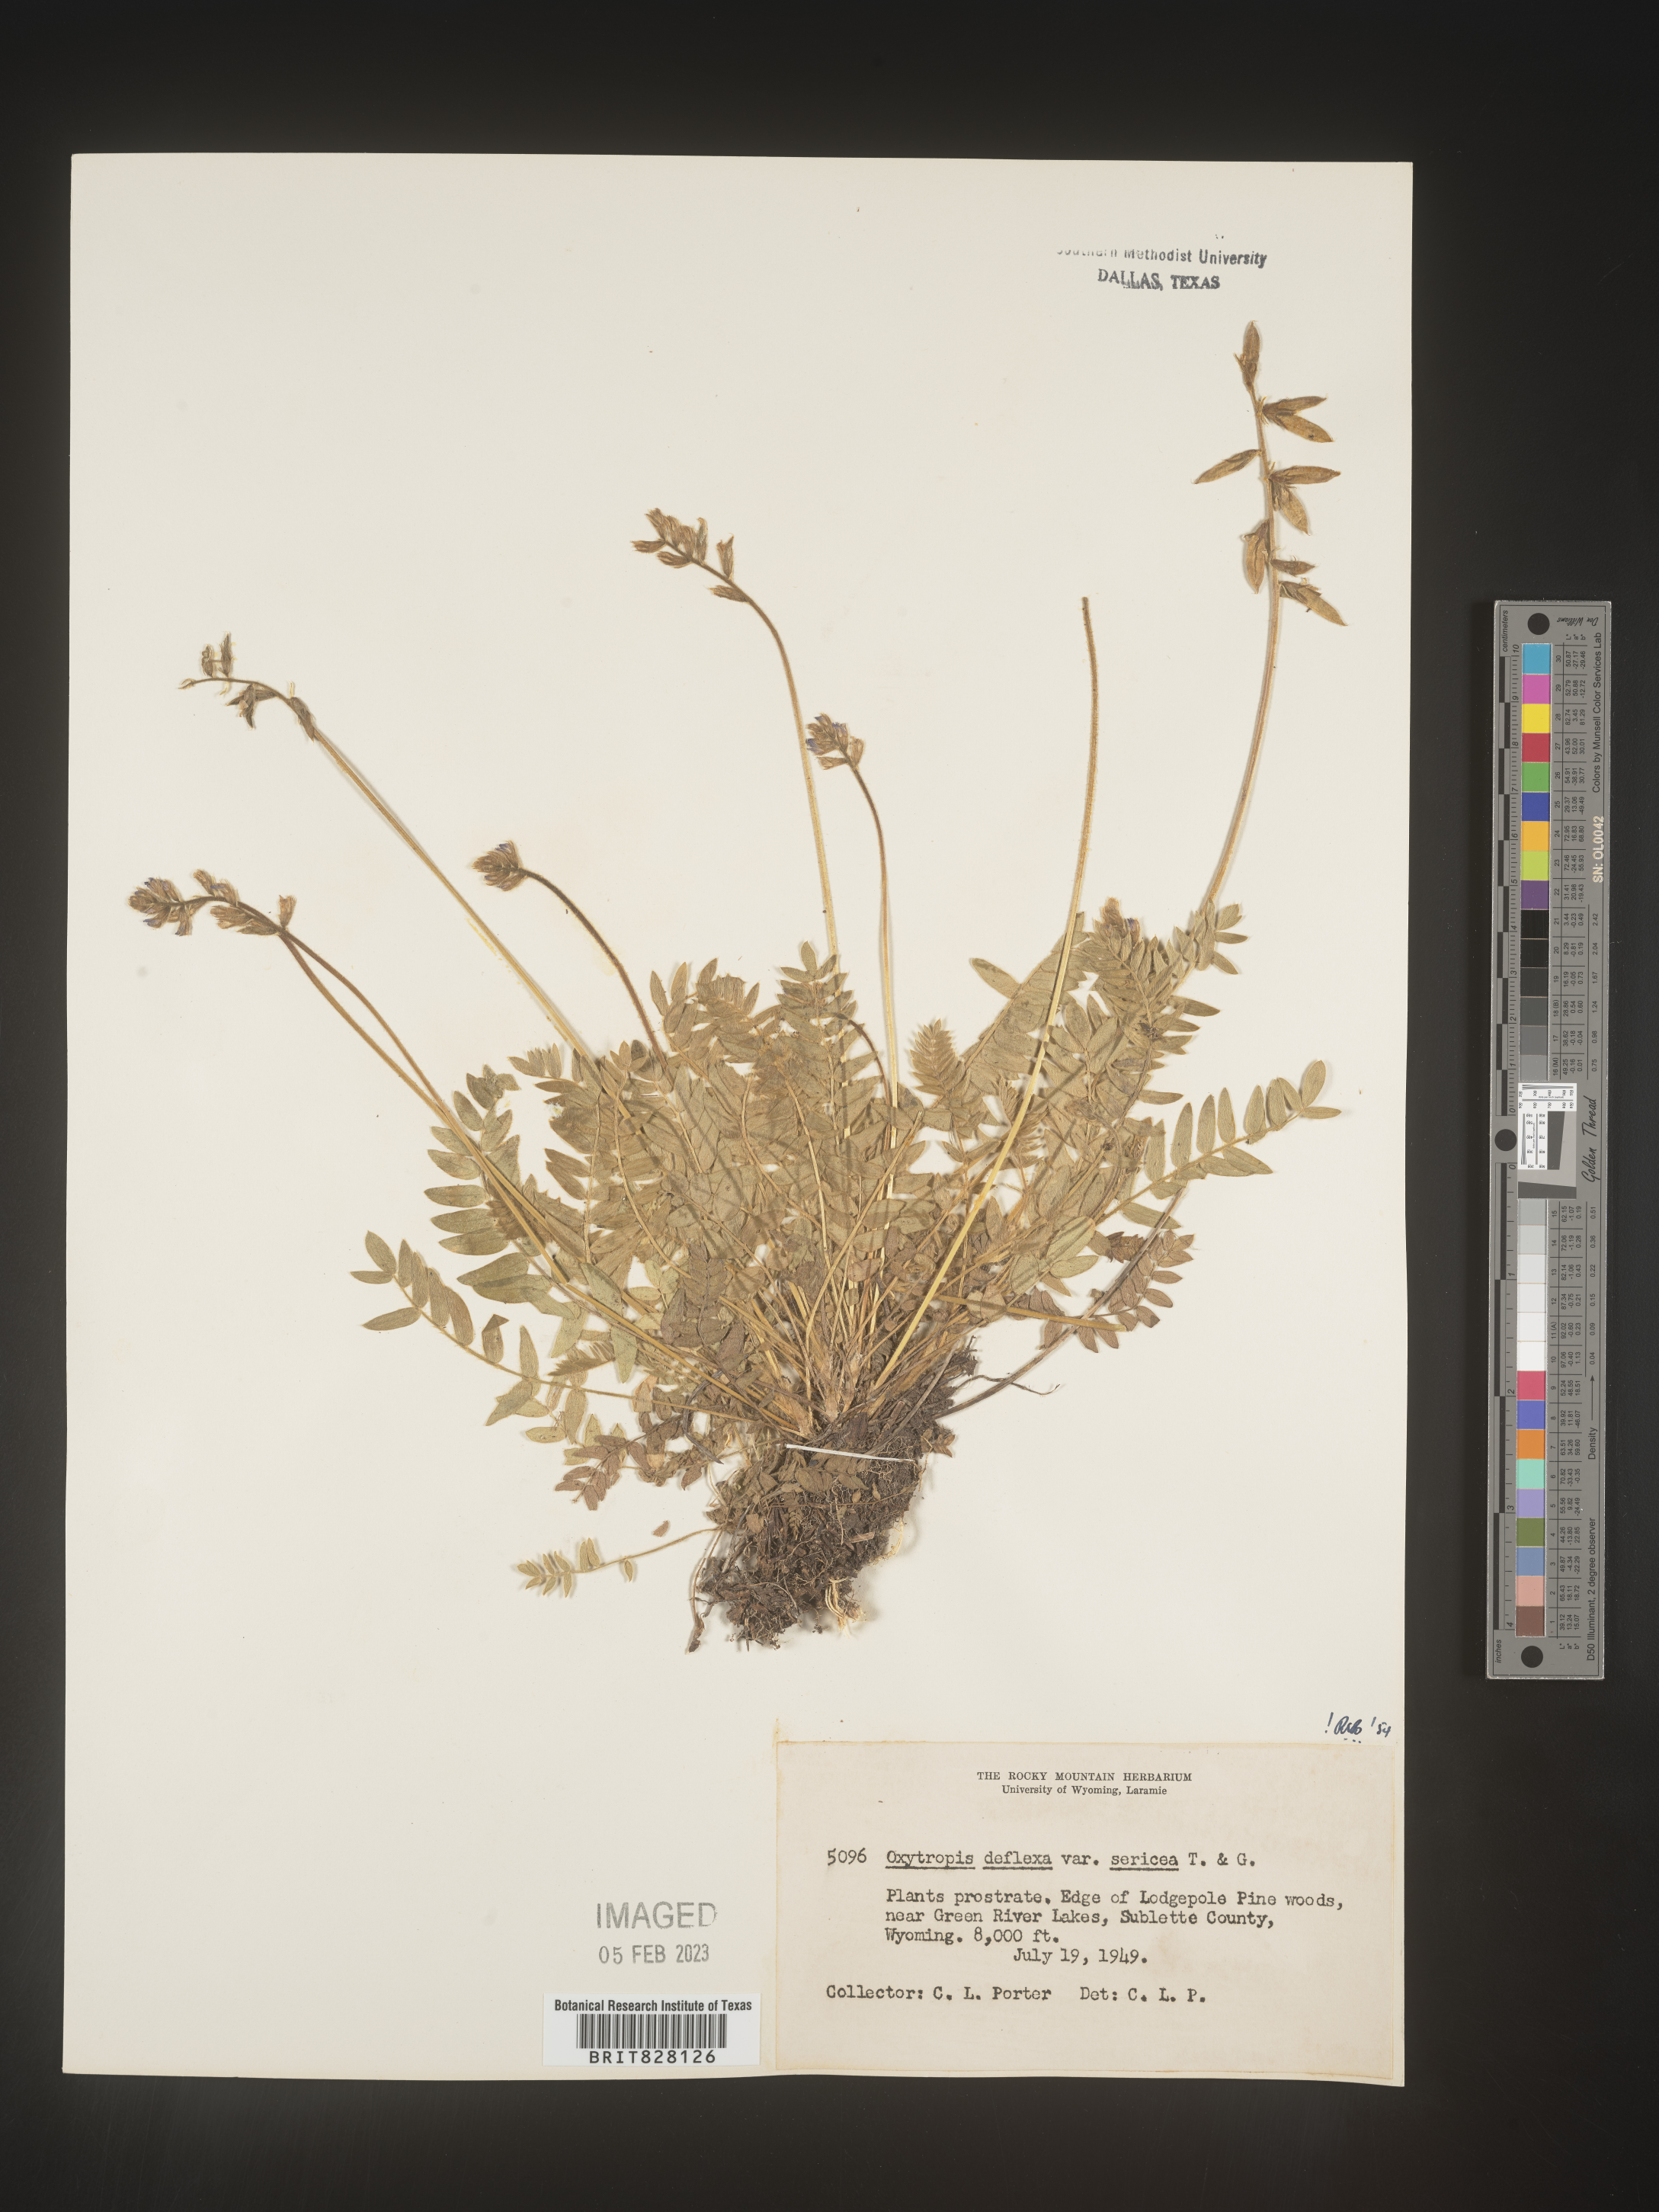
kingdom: Plantae
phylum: Tracheophyta
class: Magnoliopsida
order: Fabales
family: Fabaceae
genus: Oxytropis
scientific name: Oxytropis
